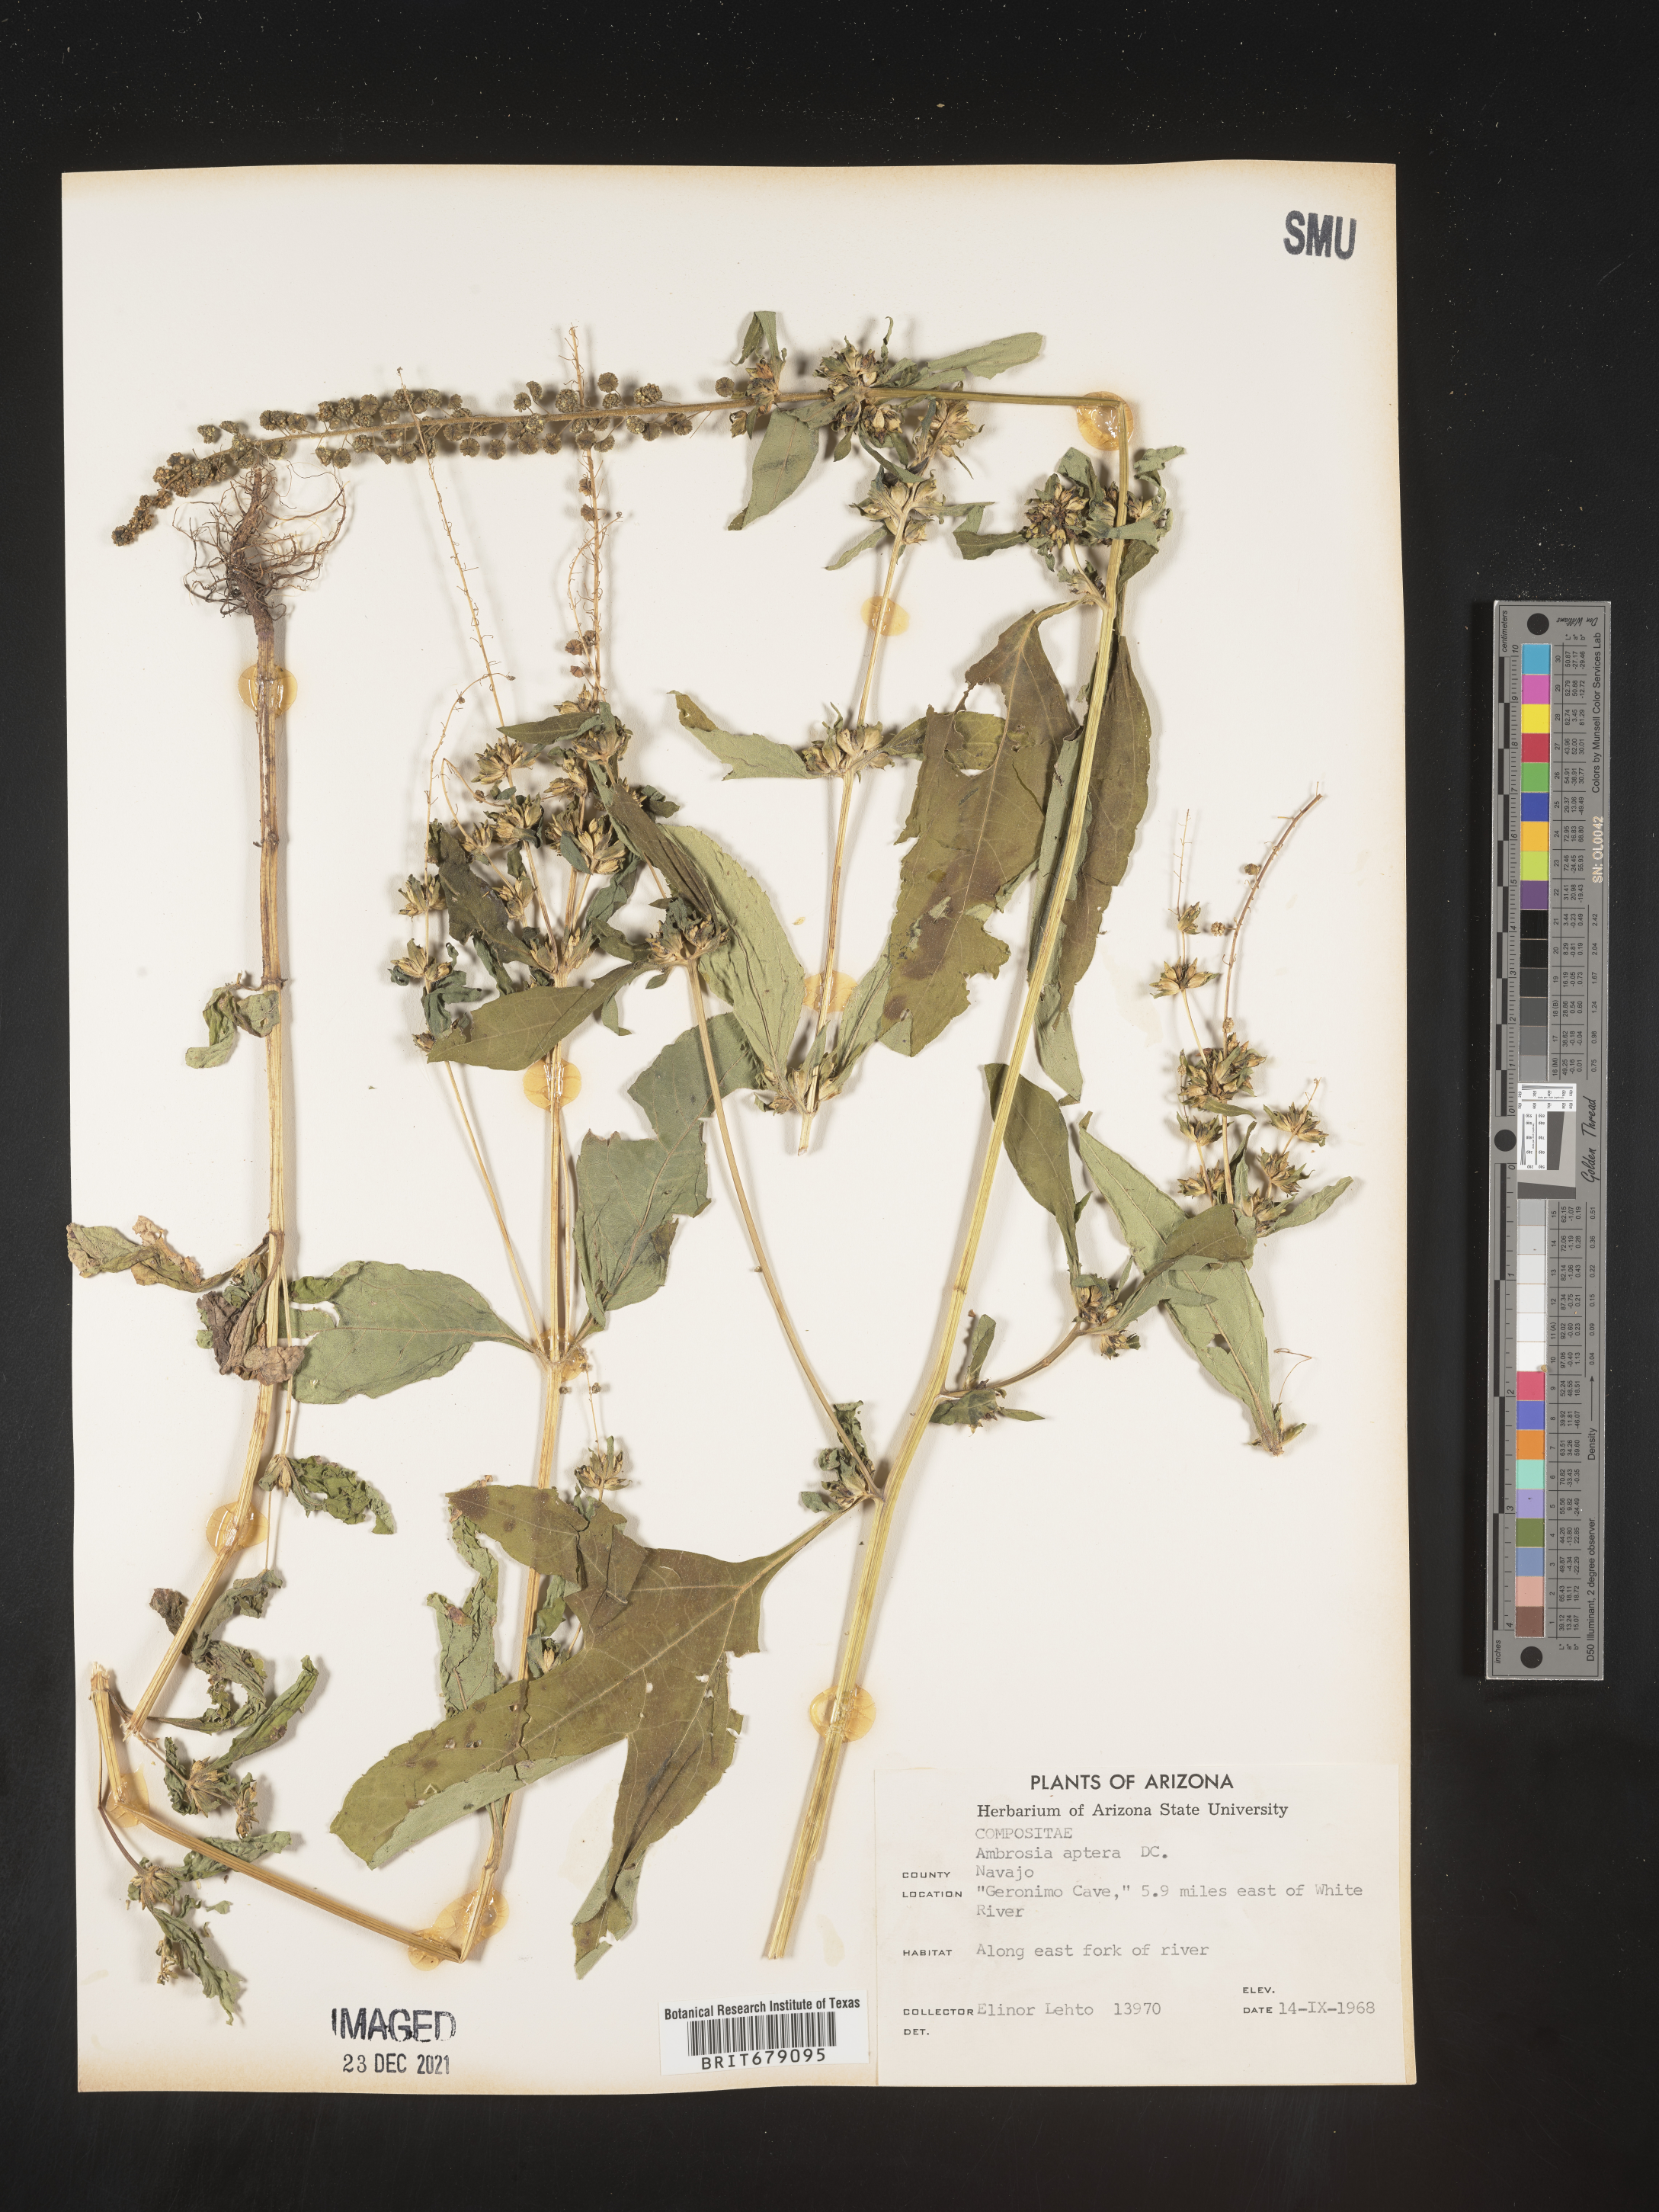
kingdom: Plantae
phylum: Tracheophyta
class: Magnoliopsida
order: Asterales
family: Asteraceae
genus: Ambrosia
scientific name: Ambrosia trifida
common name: Giant ragweed
